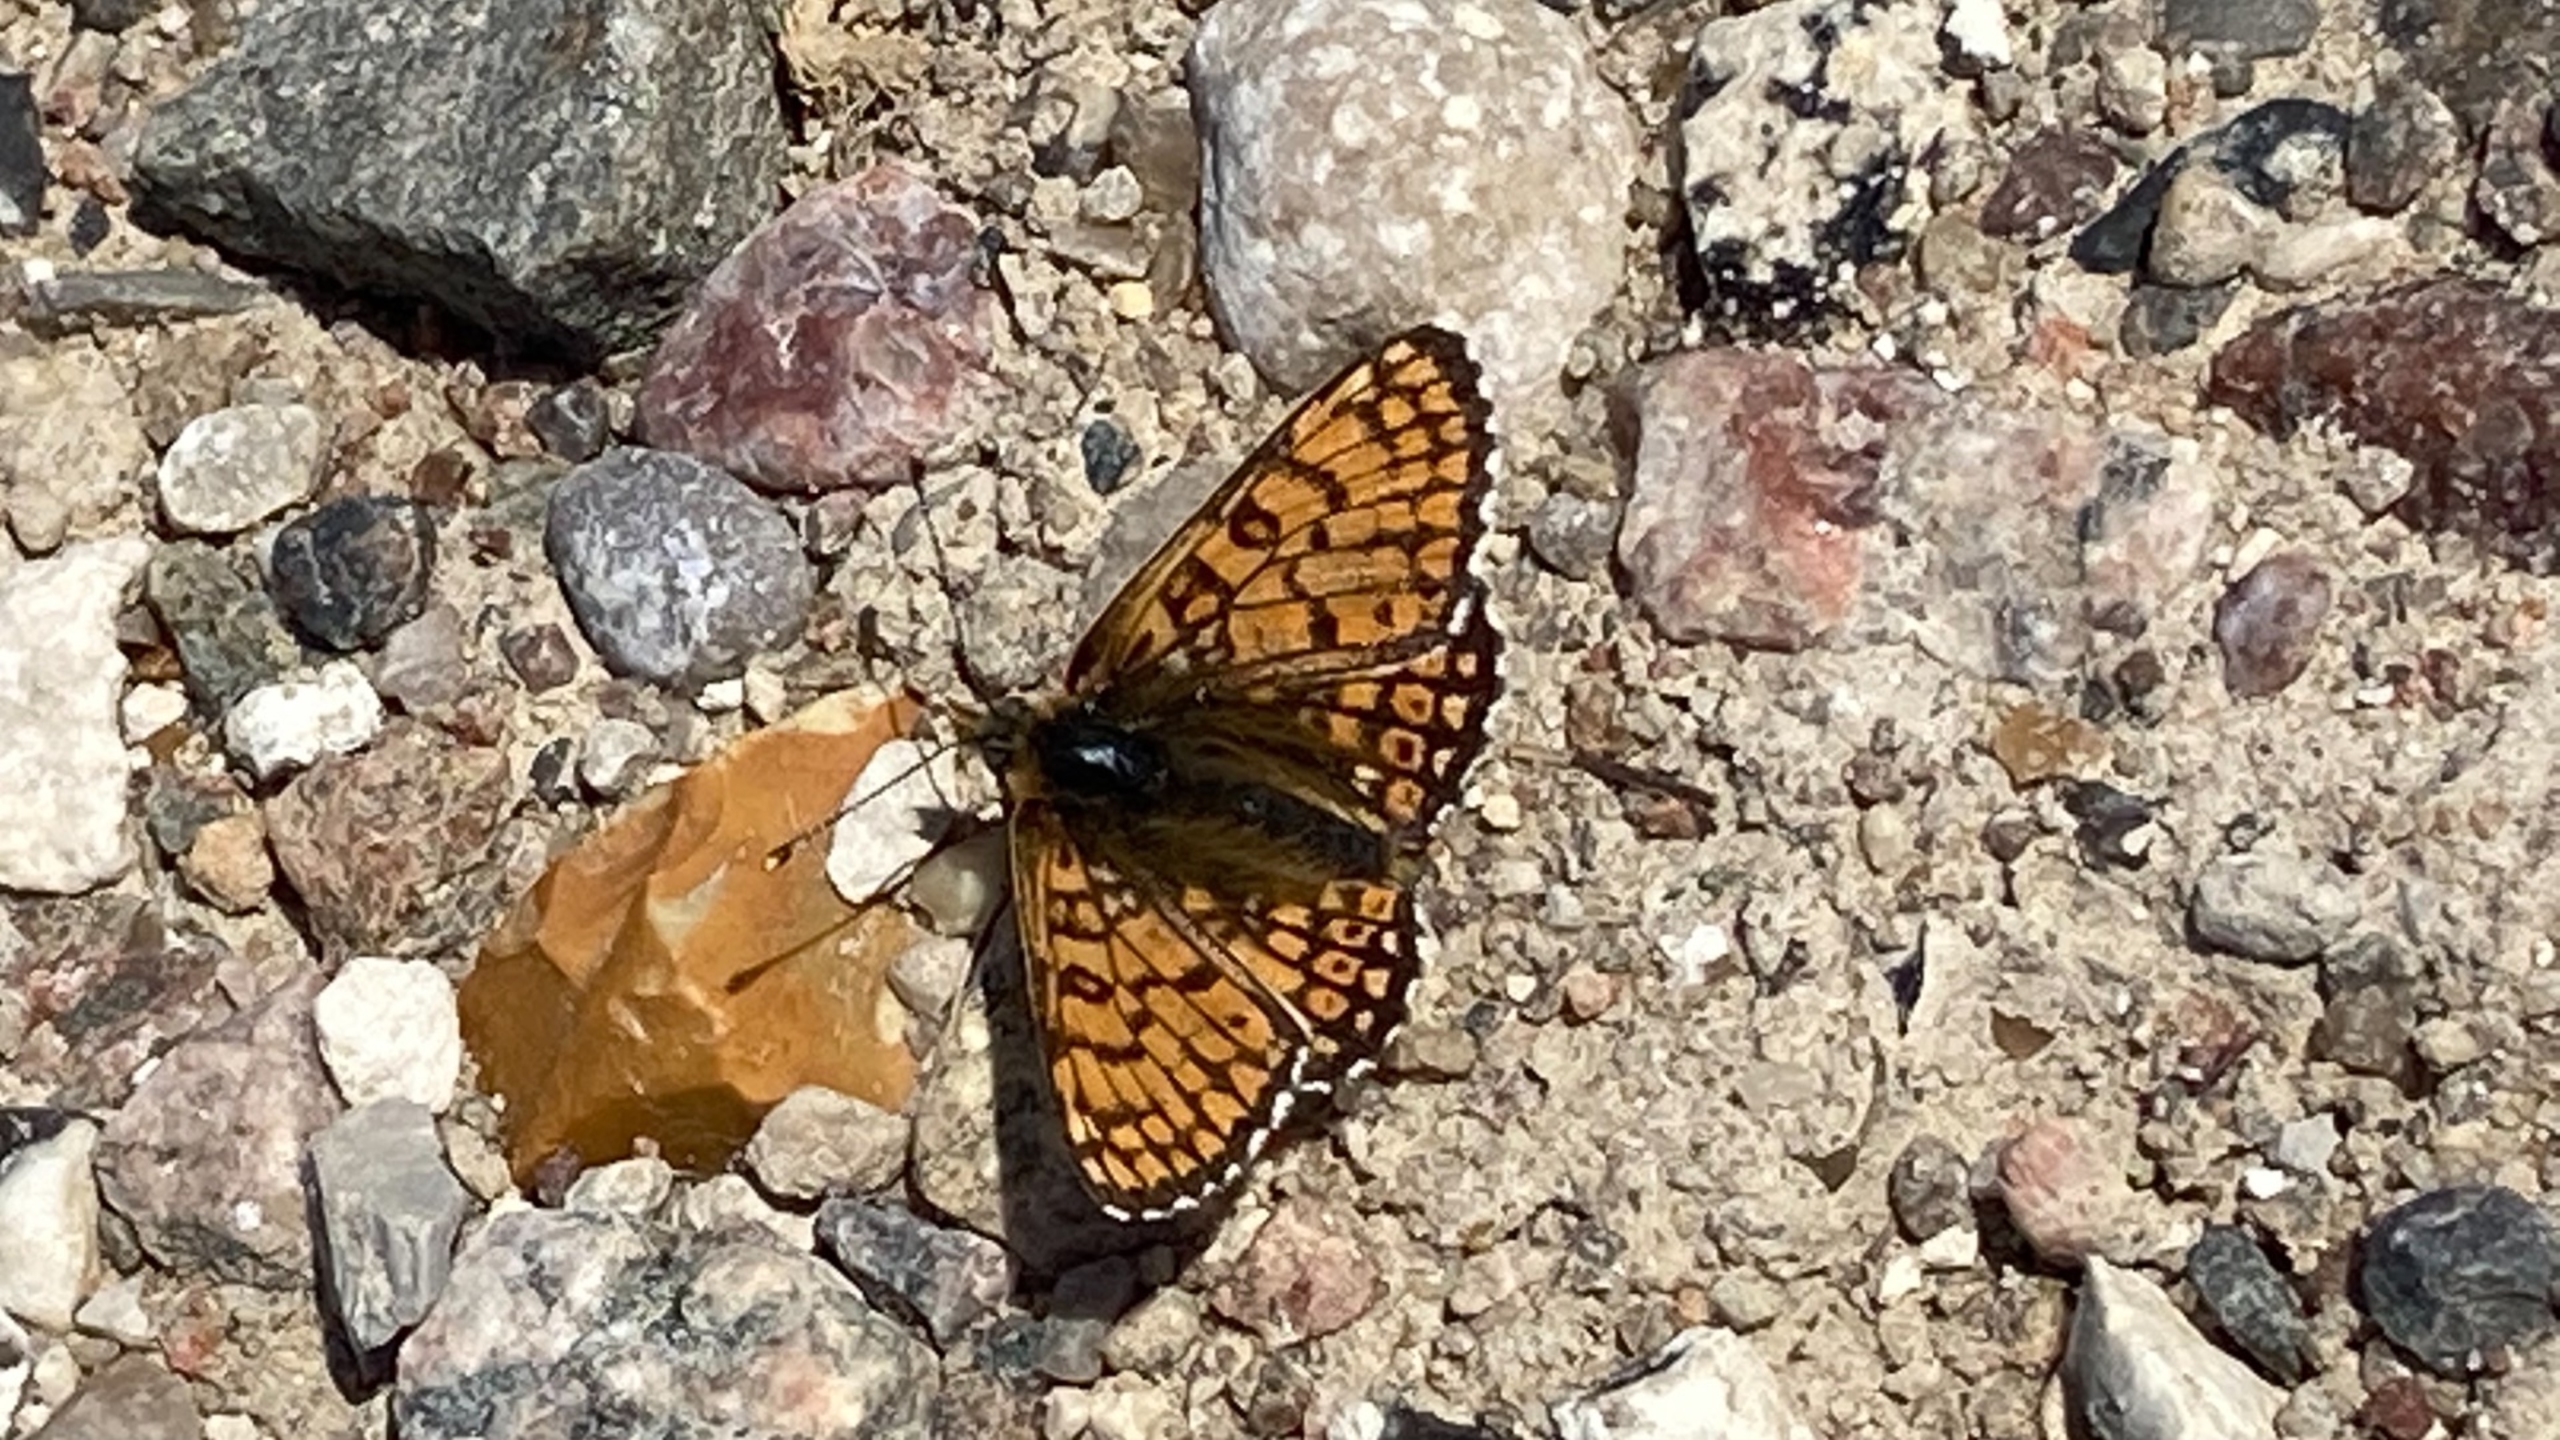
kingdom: Animalia
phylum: Arthropoda
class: Insecta
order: Lepidoptera
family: Nymphalidae
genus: Melitaea
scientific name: Melitaea cinxia
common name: Okkergul pletvinge
